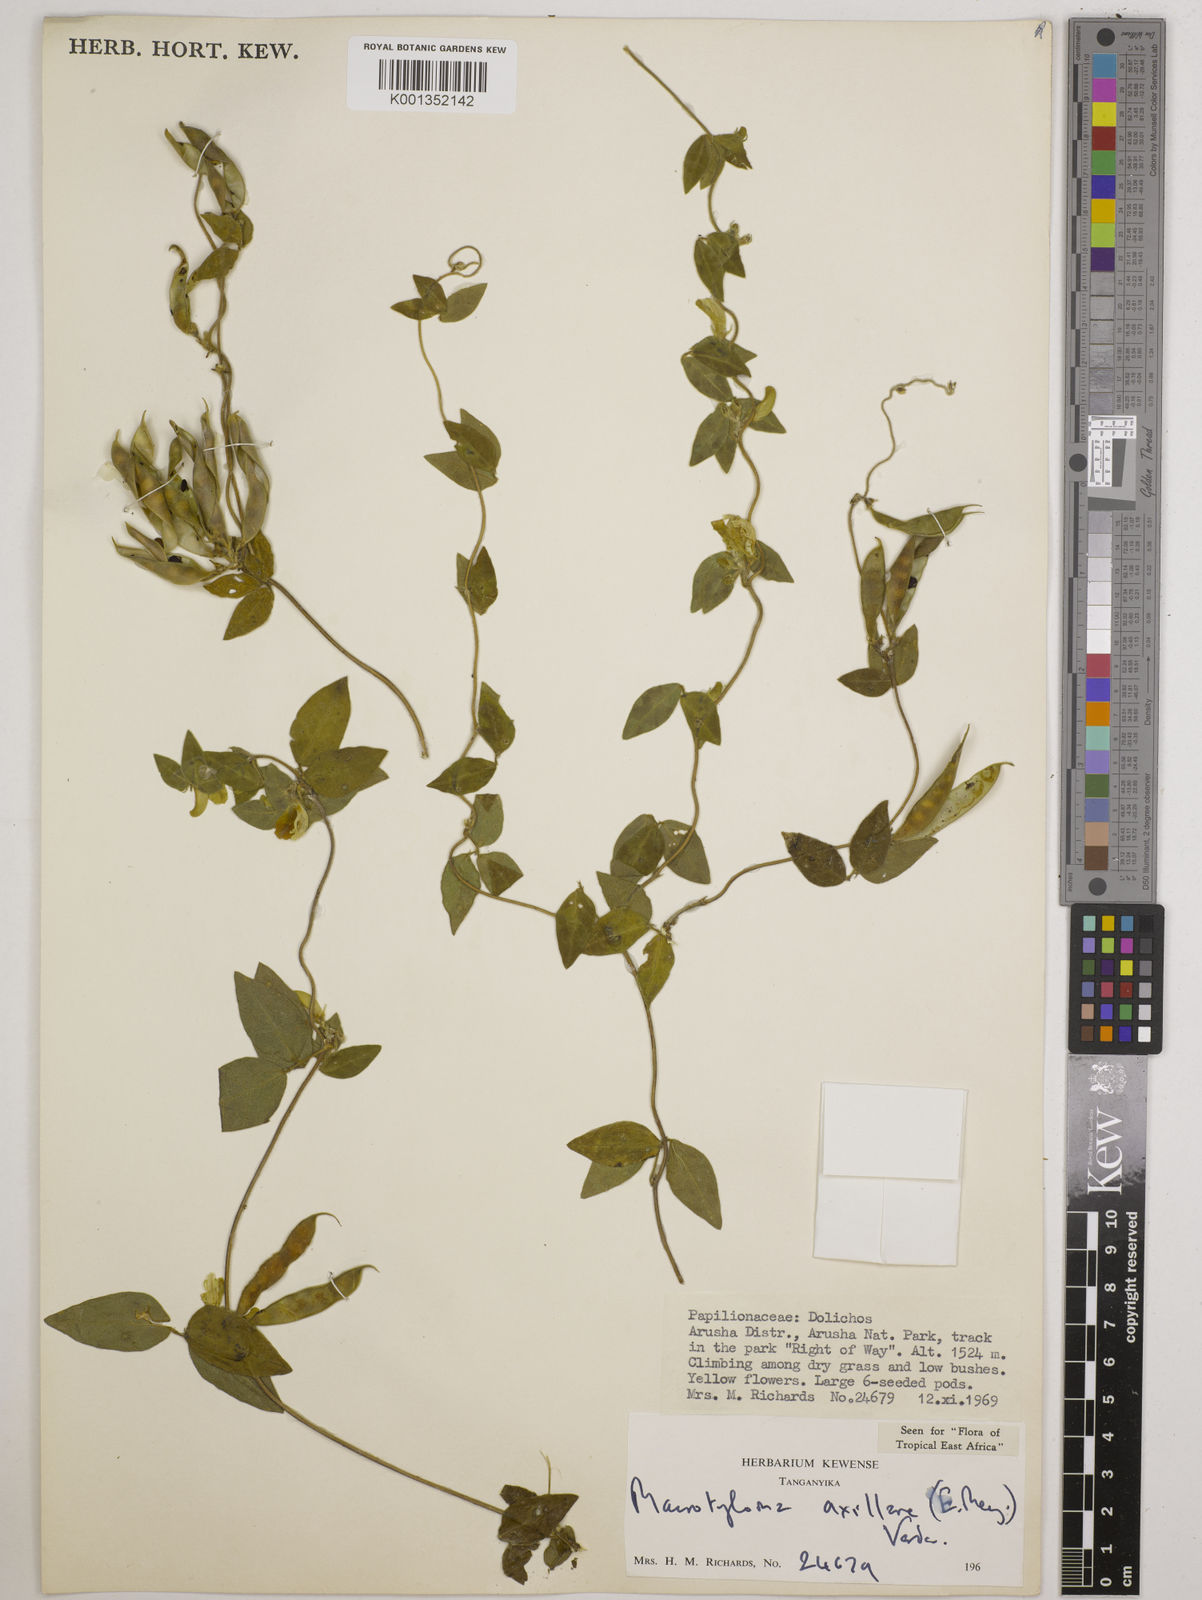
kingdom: Plantae
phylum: Tracheophyta
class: Magnoliopsida
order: Fabales
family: Fabaceae
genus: Macrotyloma
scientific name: Macrotyloma axillare
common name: Perennial horsegram
